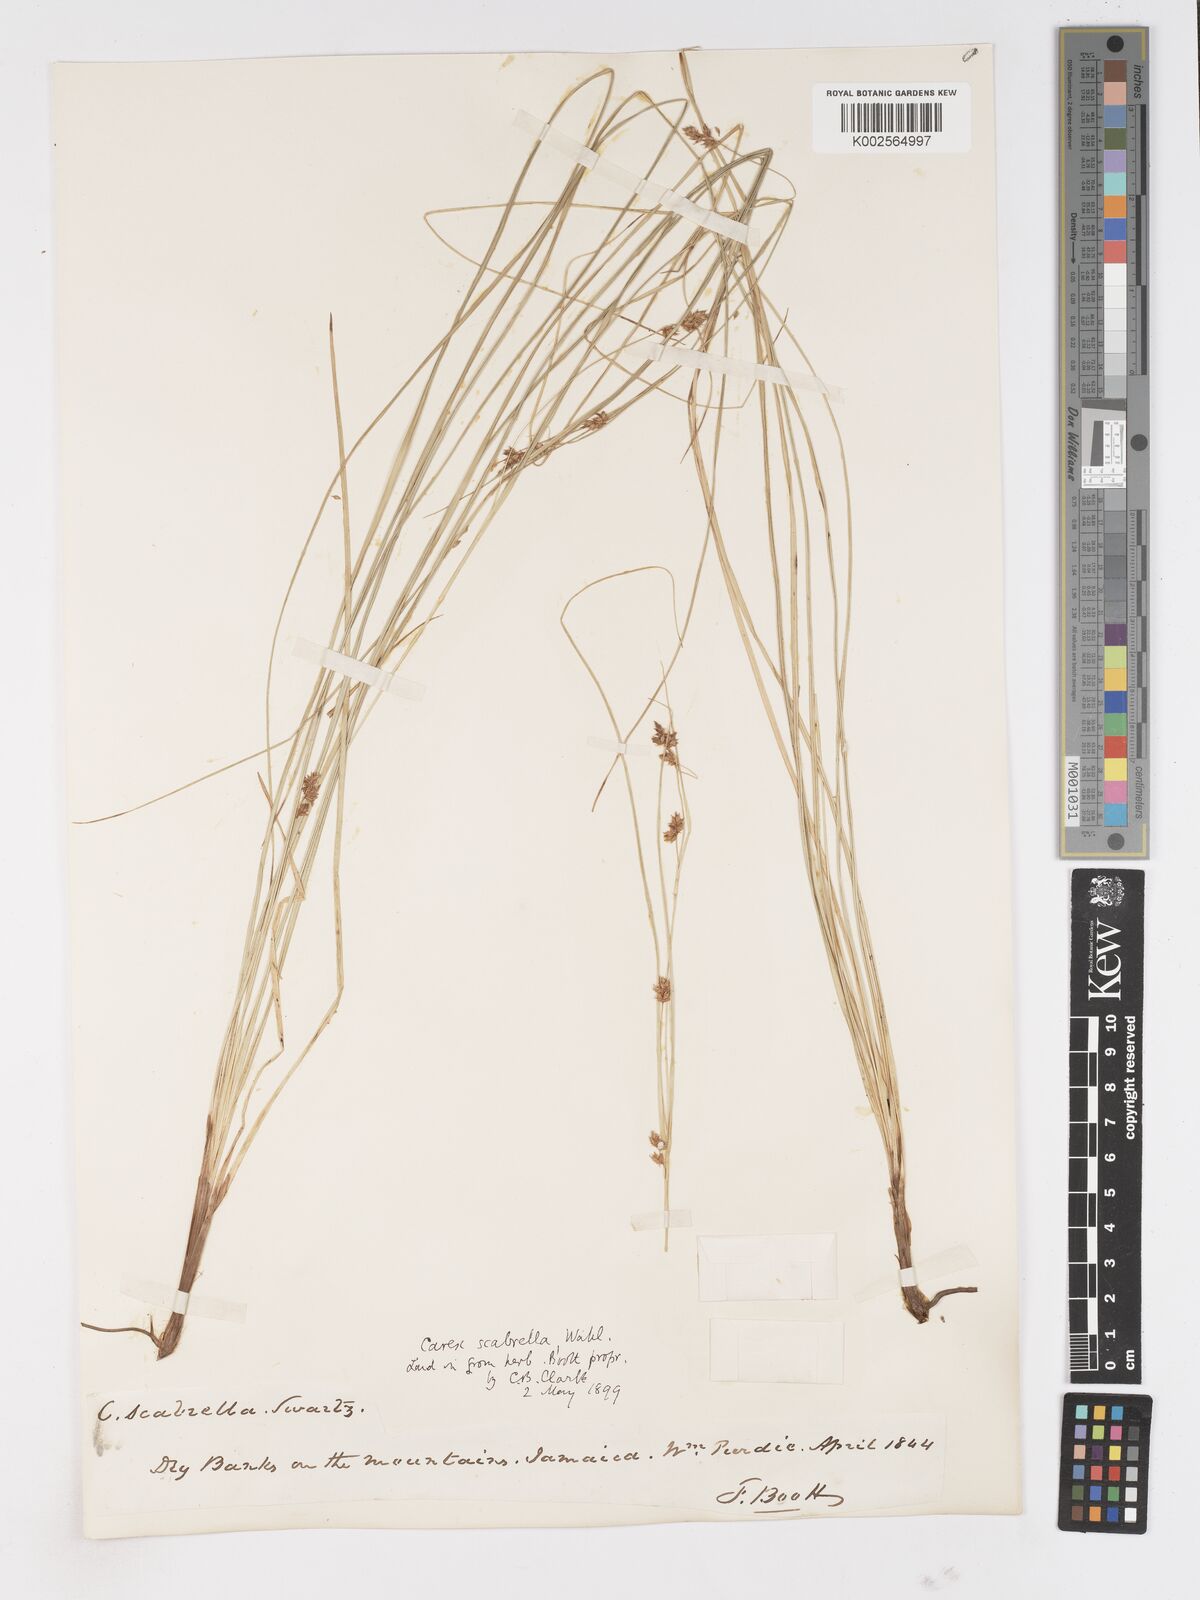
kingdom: Plantae
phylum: Tracheophyta
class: Liliopsida
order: Poales
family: Cyperaceae
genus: Carex
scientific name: Carex
